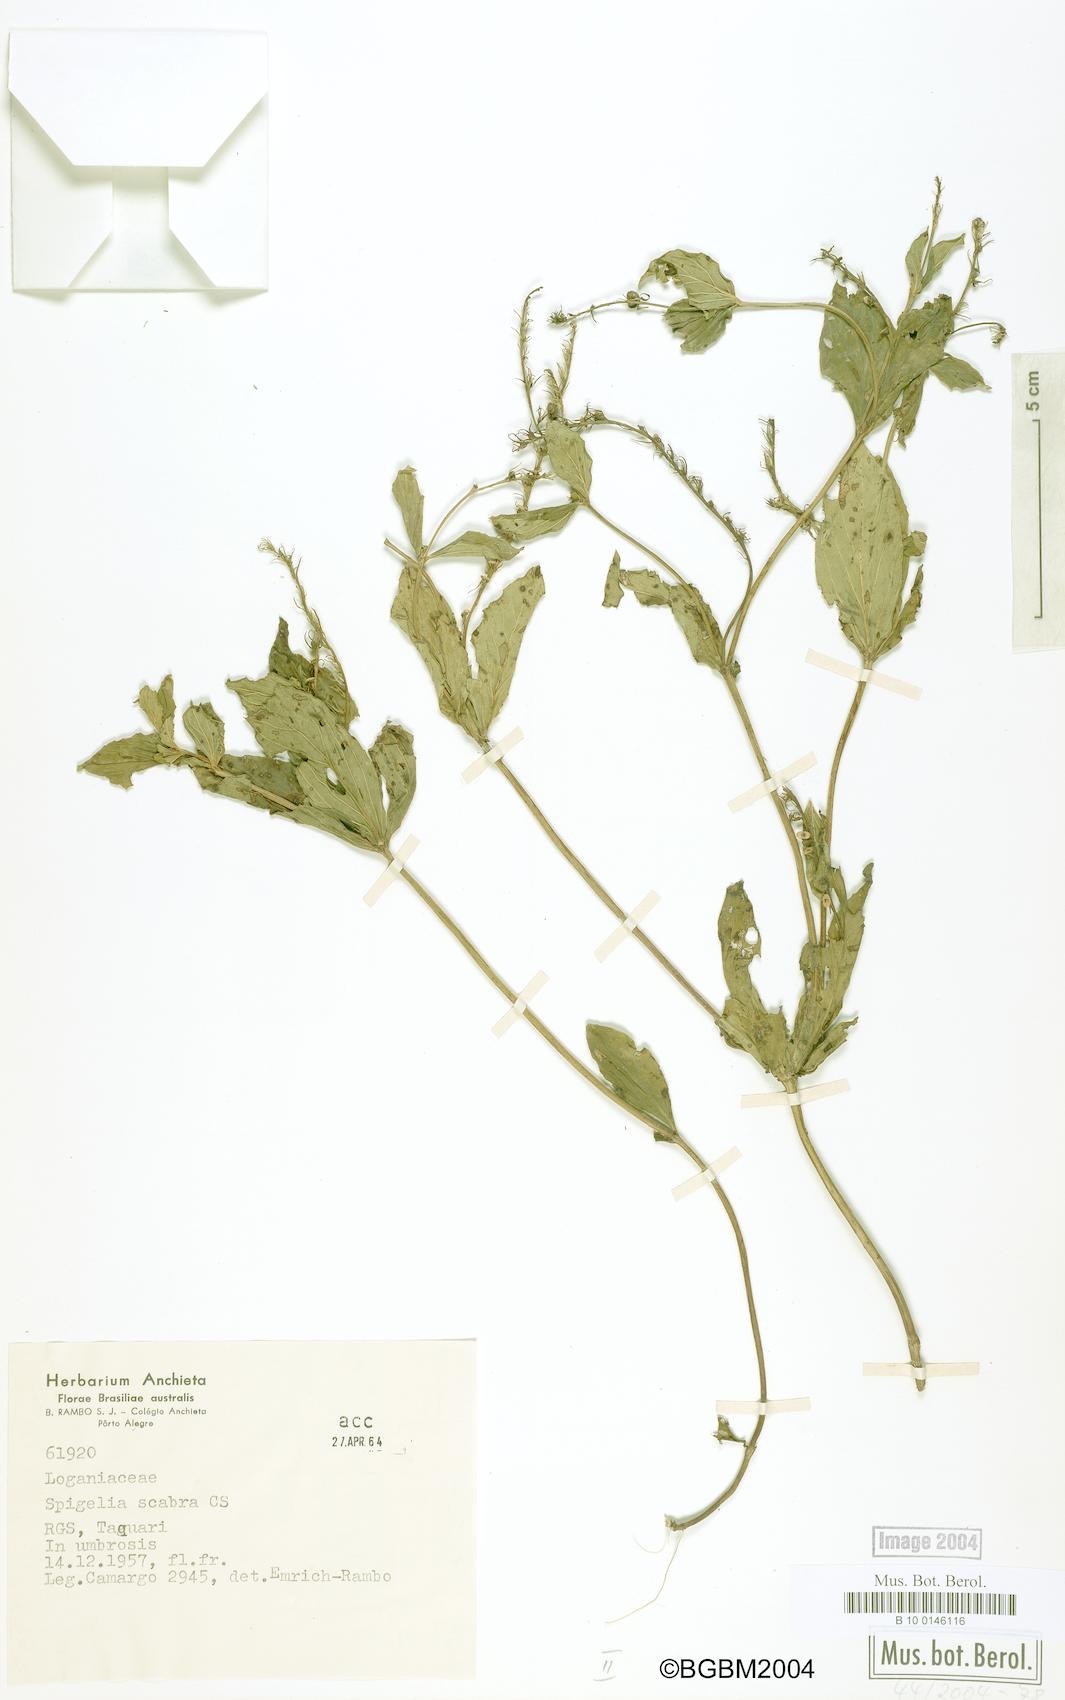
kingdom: Plantae
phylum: Tracheophyta
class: Magnoliopsida
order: Gentianales
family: Loganiaceae
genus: Spigelia
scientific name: Spigelia humboldtiana
